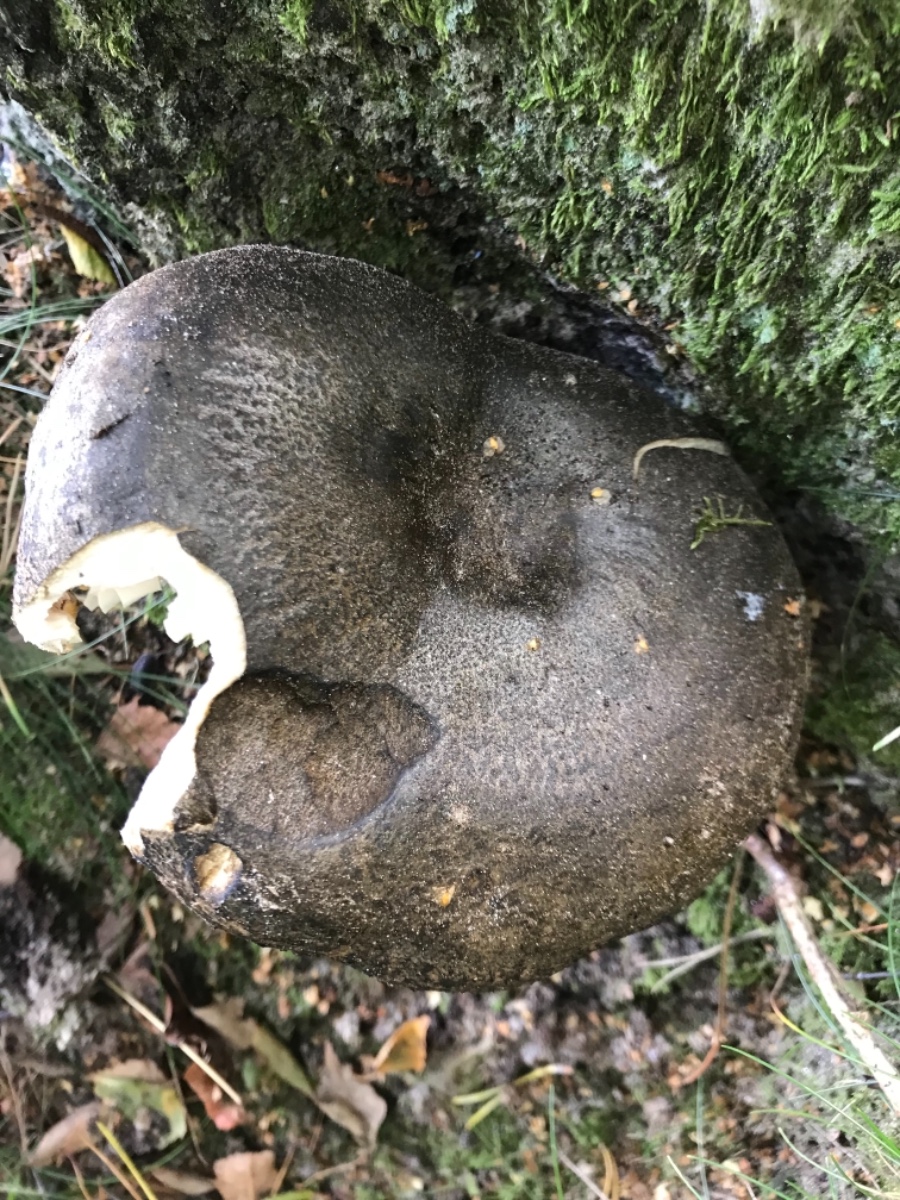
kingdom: Fungi
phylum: Basidiomycota
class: Agaricomycetes
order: Russulales
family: Russulaceae
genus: Lactarius
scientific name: Lactarius necator
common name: manddraber-mælkehat
